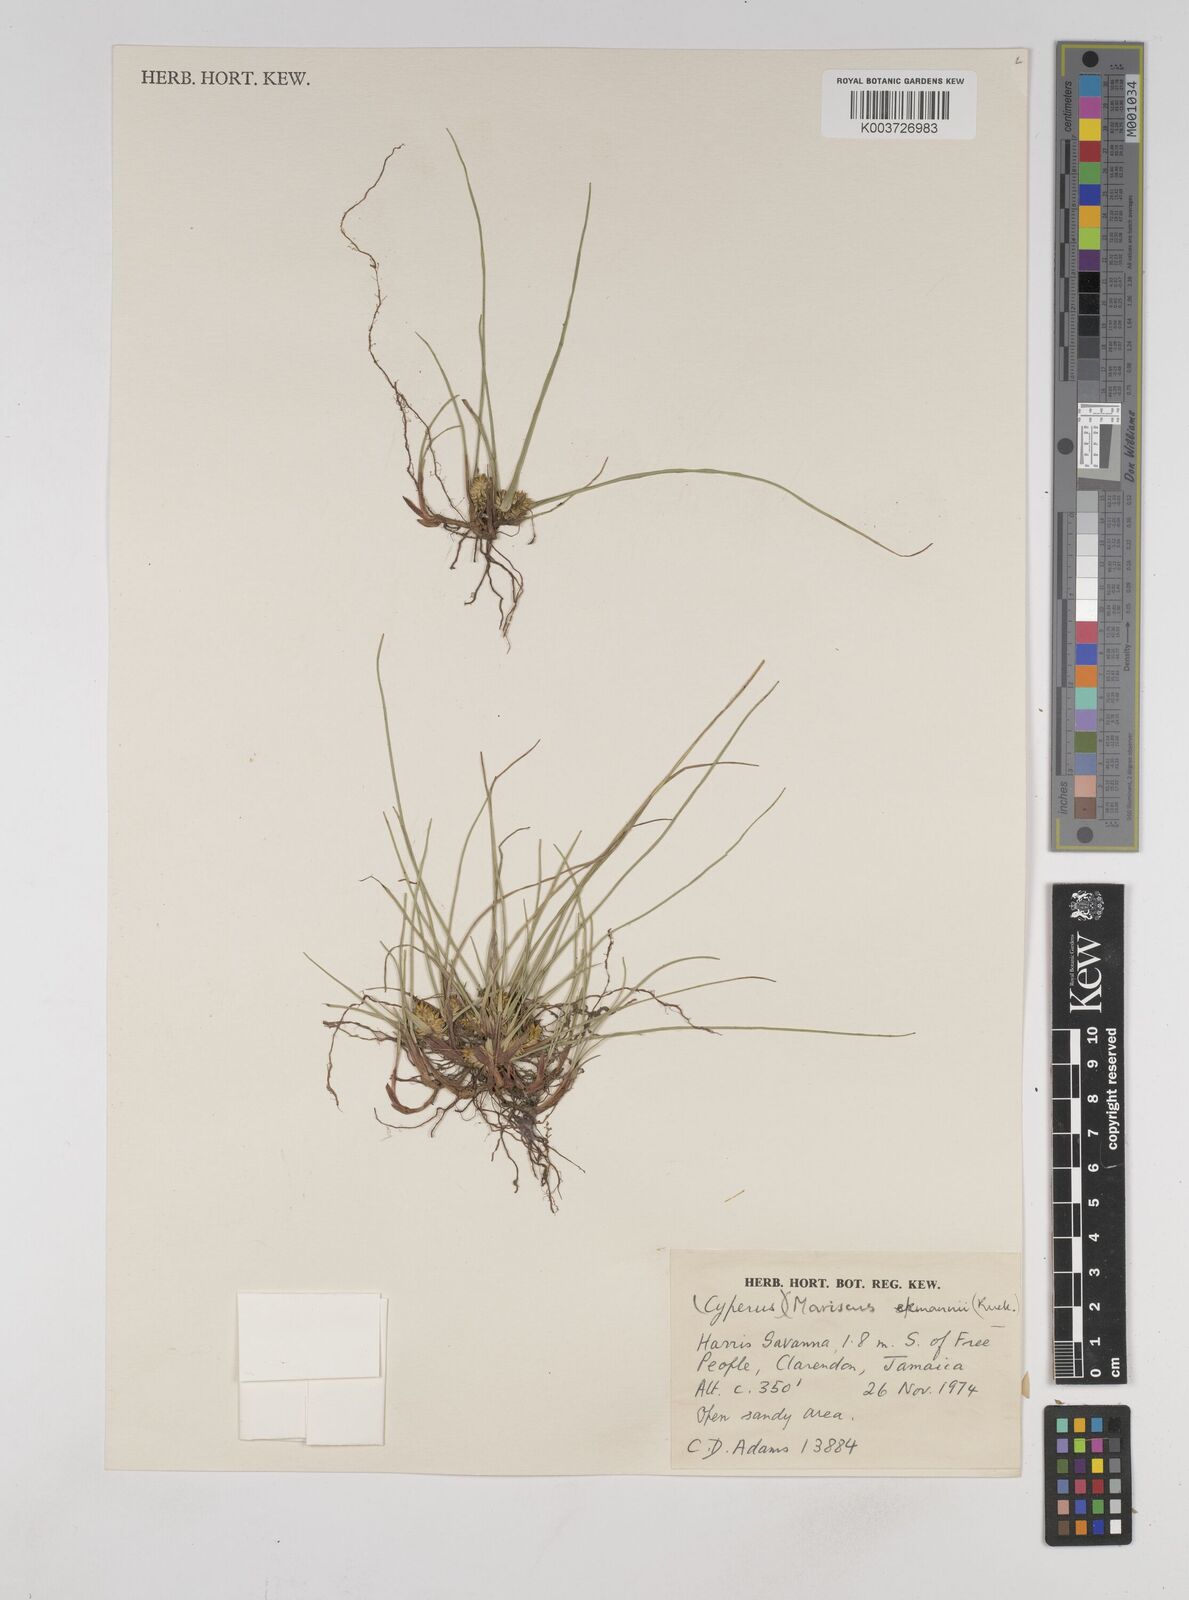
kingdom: Plantae
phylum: Tracheophyta
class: Liliopsida
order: Poales
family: Cyperaceae
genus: Cyperus
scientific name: Cyperus ekmanii
